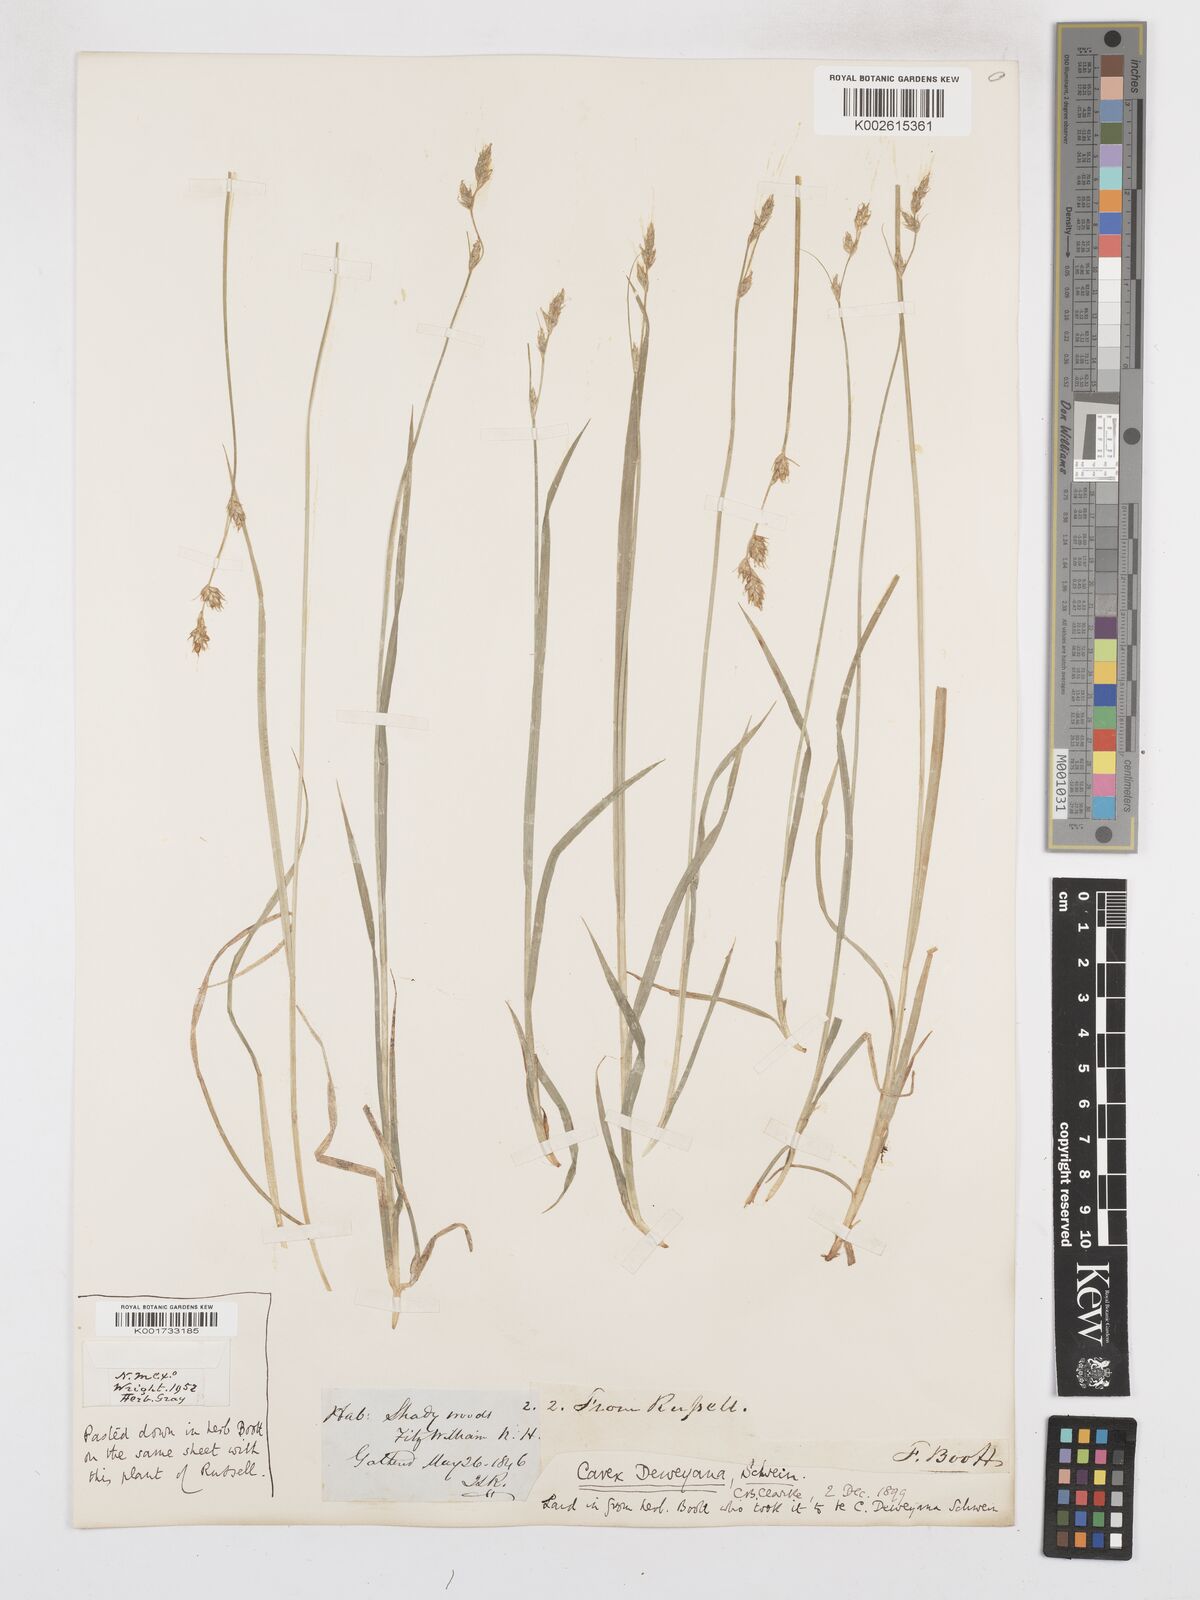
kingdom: Plantae
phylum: Tracheophyta
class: Liliopsida
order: Poales
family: Cyperaceae
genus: Carex
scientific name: Carex deweyana
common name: Dewey's sedge
